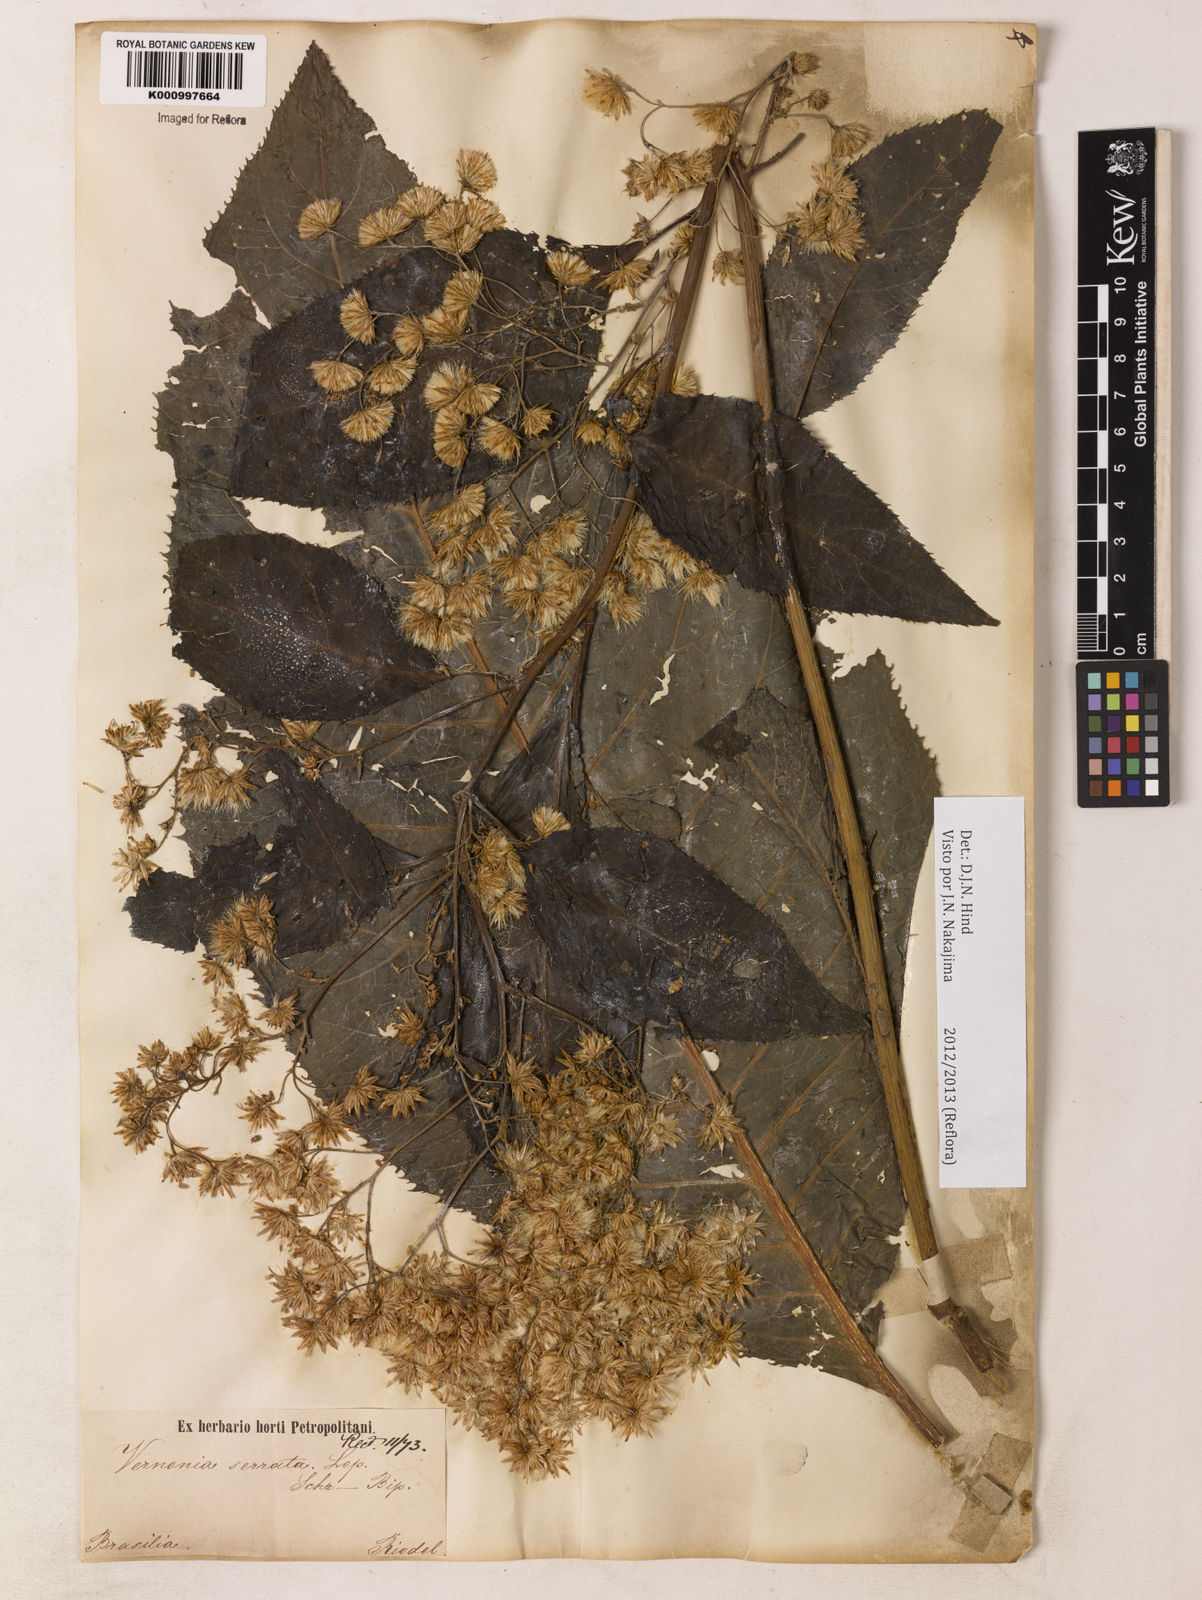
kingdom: Plantae
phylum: Tracheophyta
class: Magnoliopsida
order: Asterales
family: Asteraceae
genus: Dasyanthina
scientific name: Dasyanthina serrata
